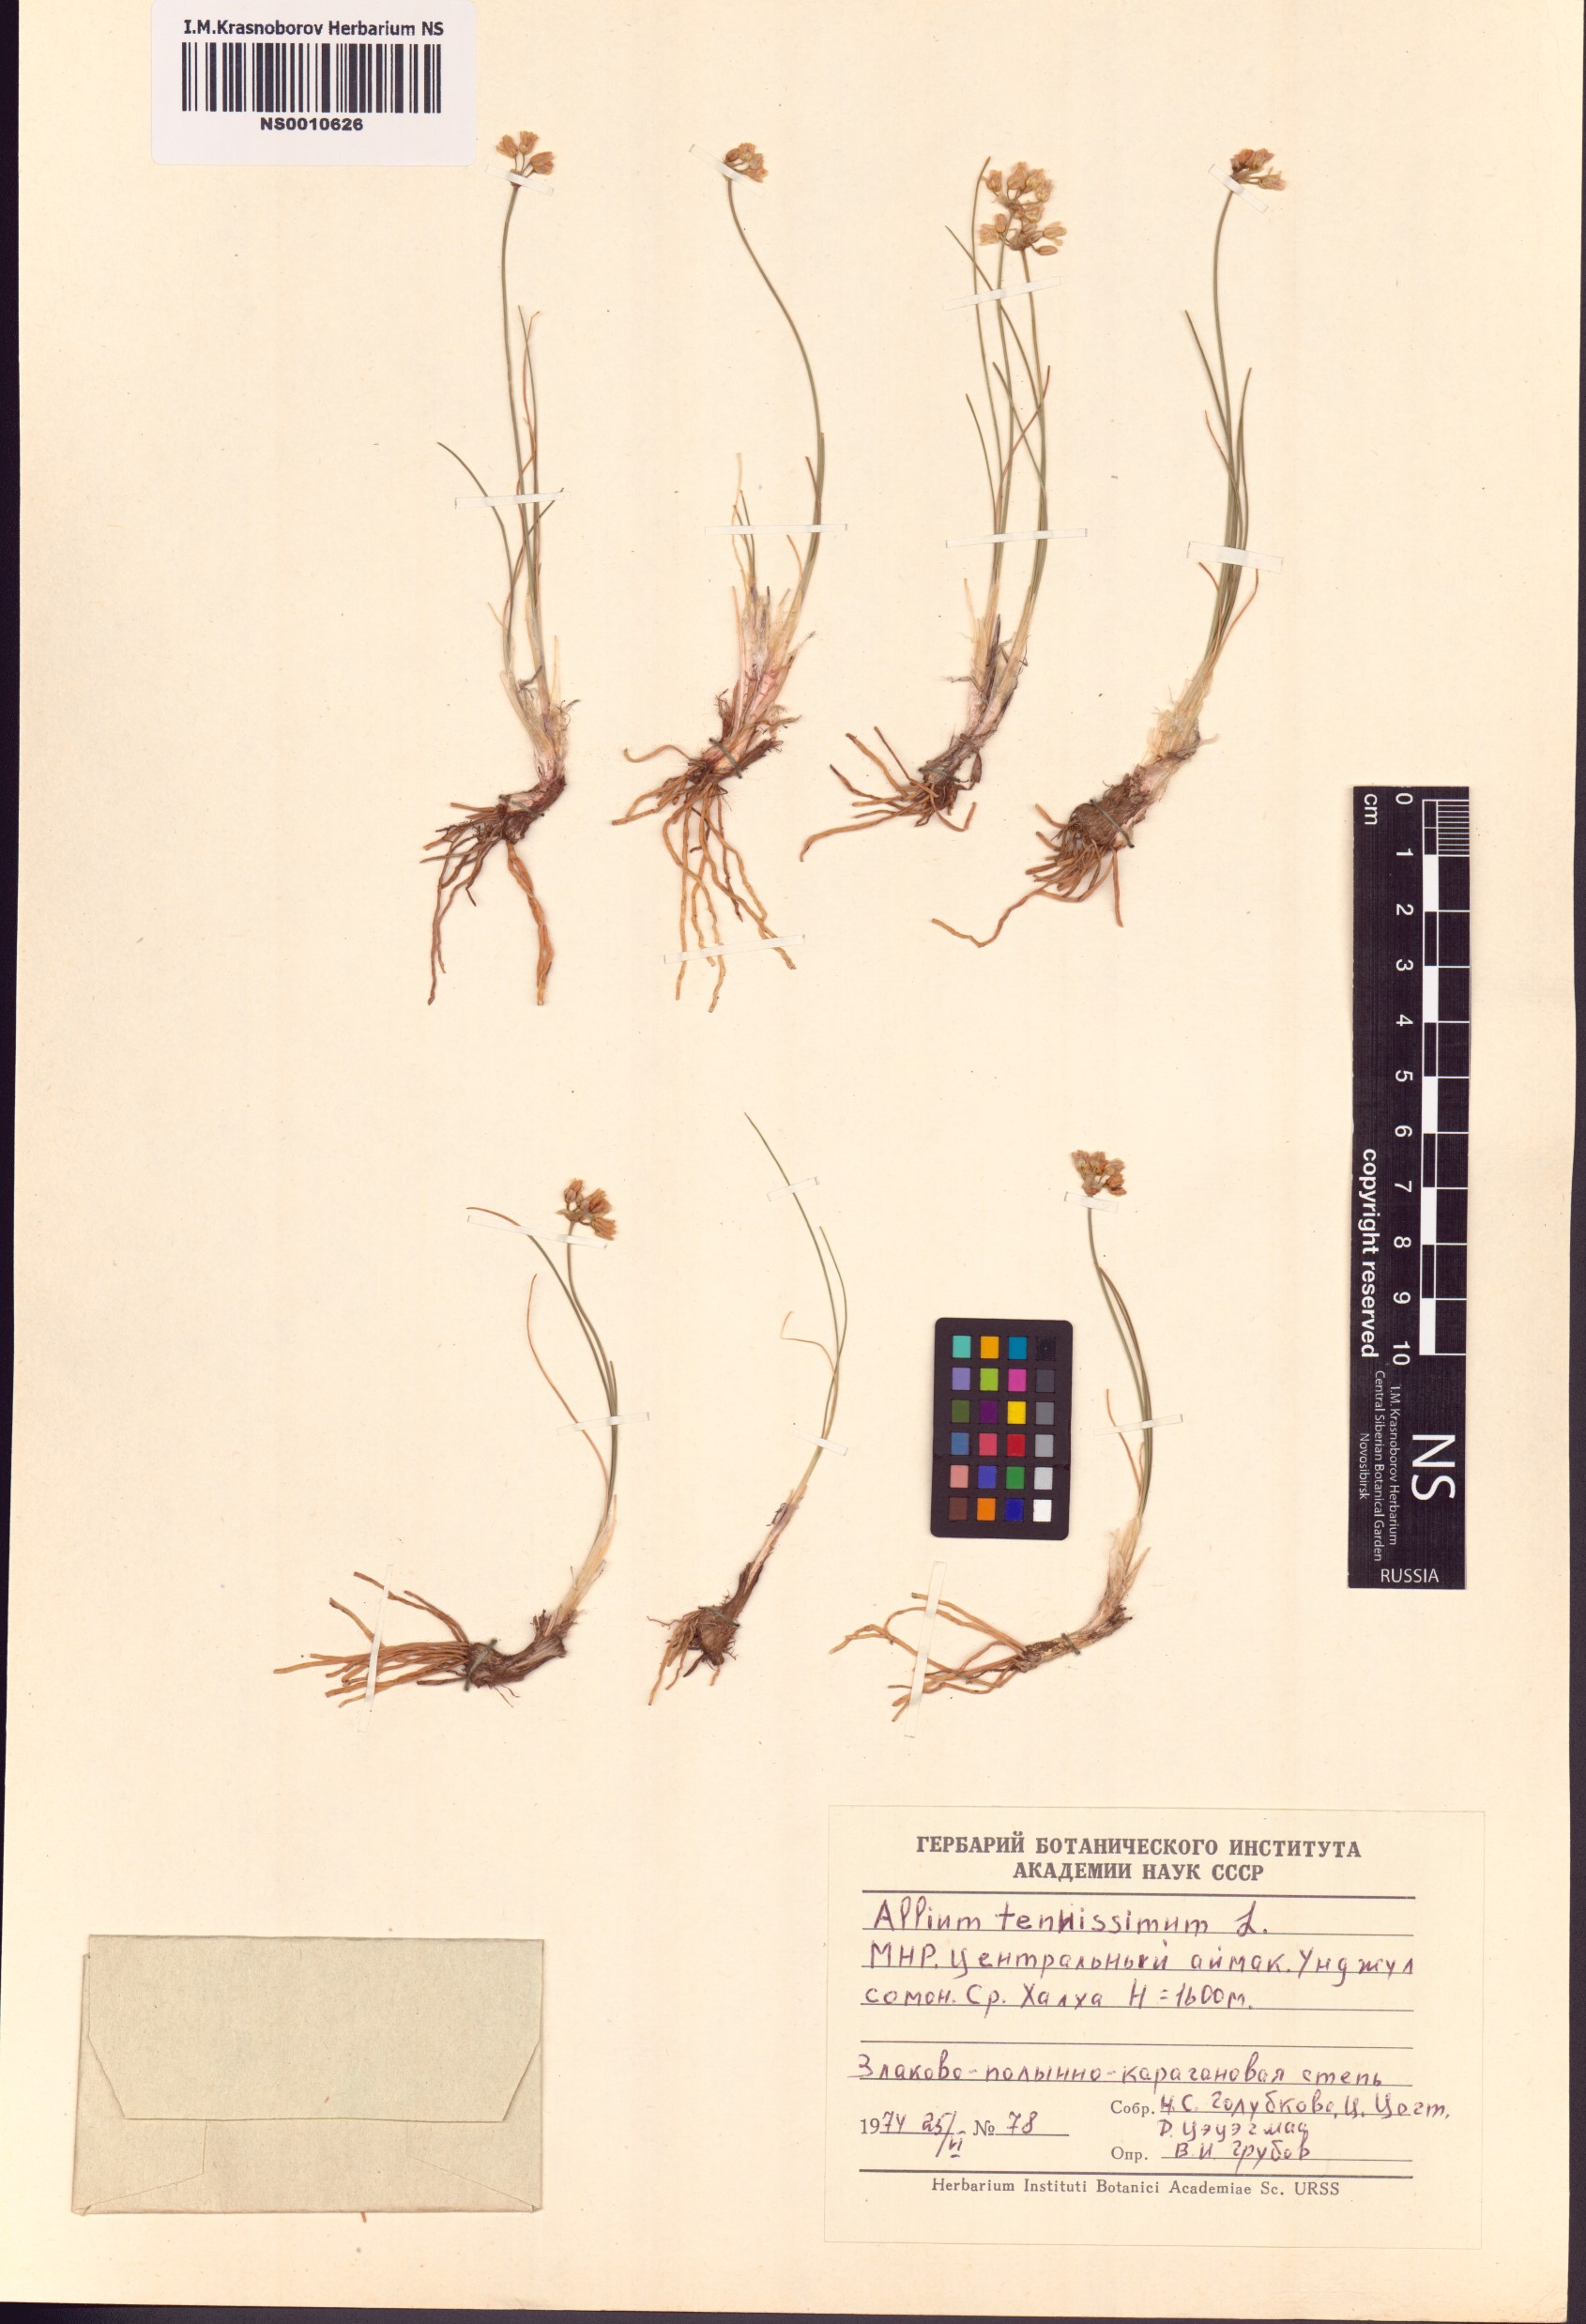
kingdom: Plantae
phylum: Tracheophyta
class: Liliopsida
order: Asparagales
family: Amaryllidaceae
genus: Allium
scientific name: Allium tenuissimum
